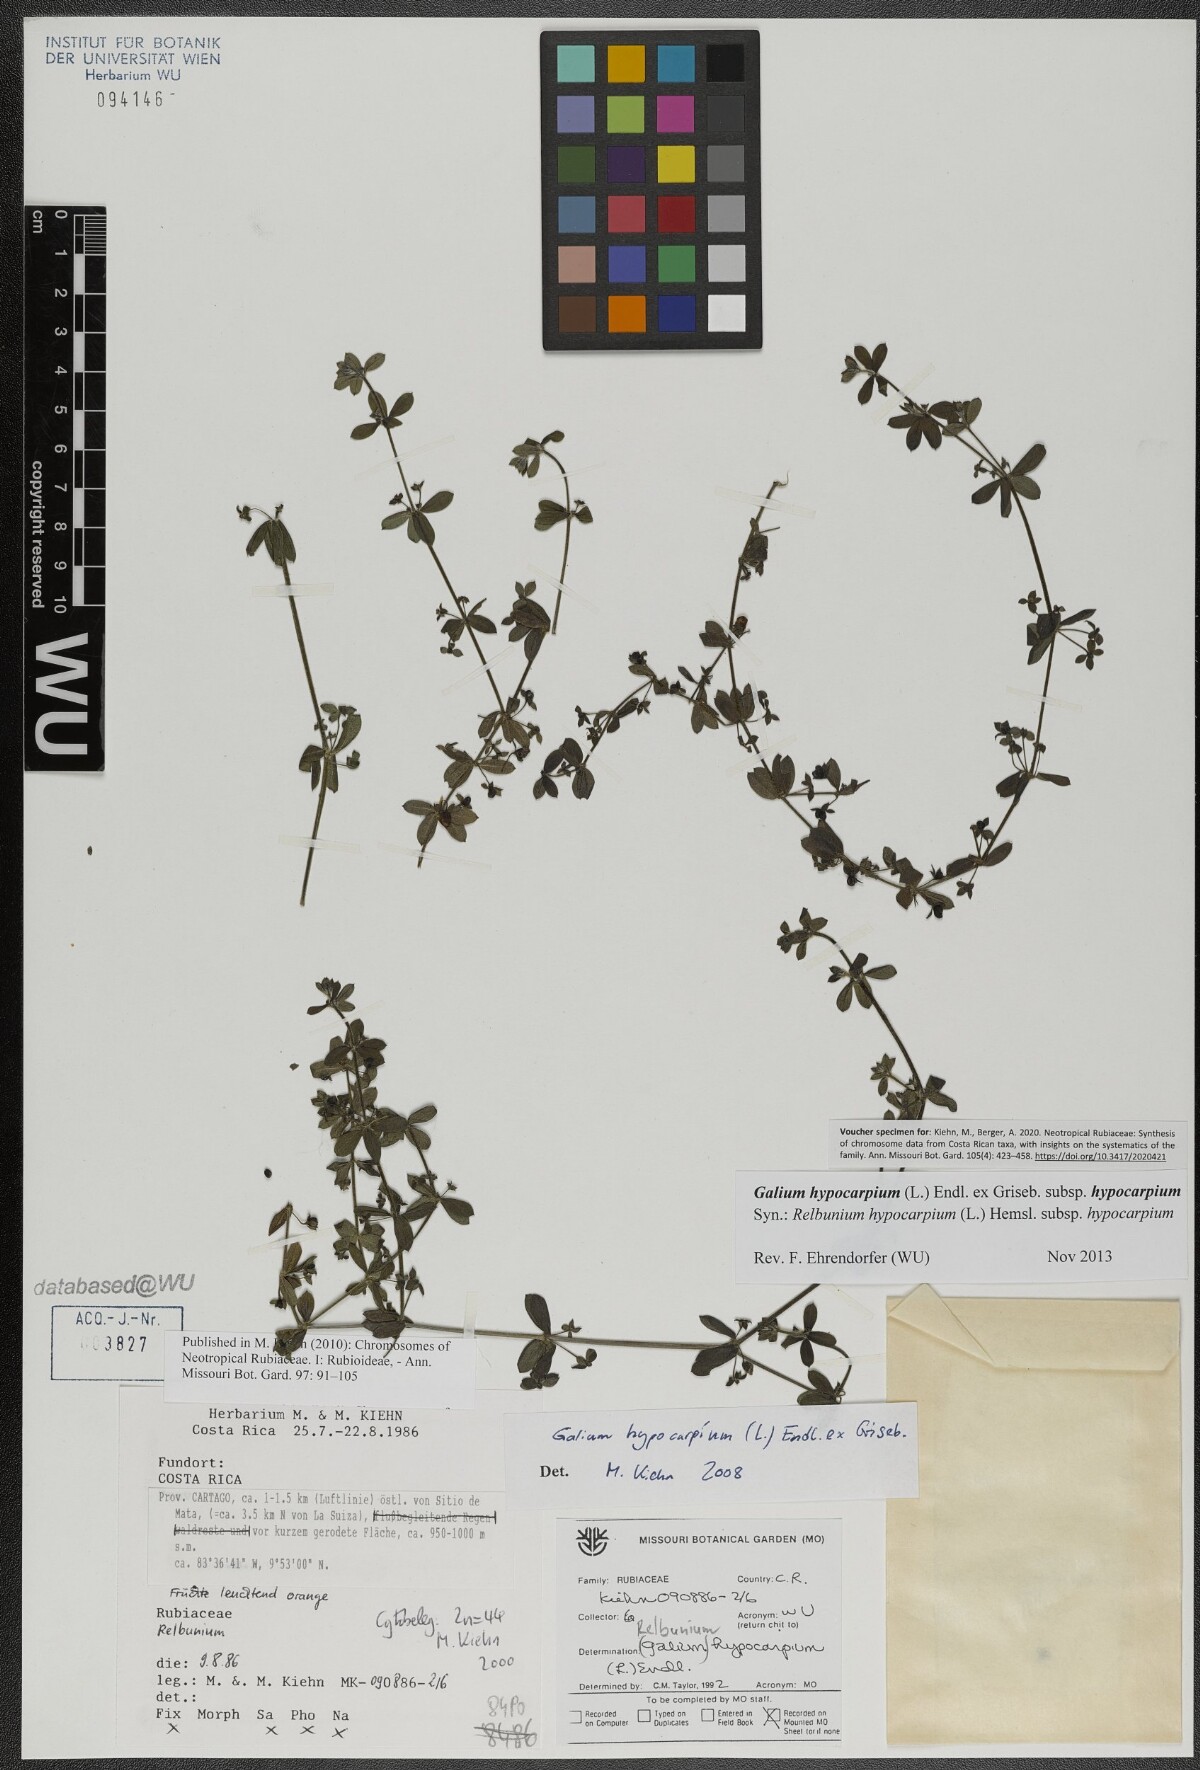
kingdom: Plantae
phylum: Tracheophyta
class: Magnoliopsida
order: Gentianales
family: Rubiaceae
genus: Galium
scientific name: Galium hypocarpium
